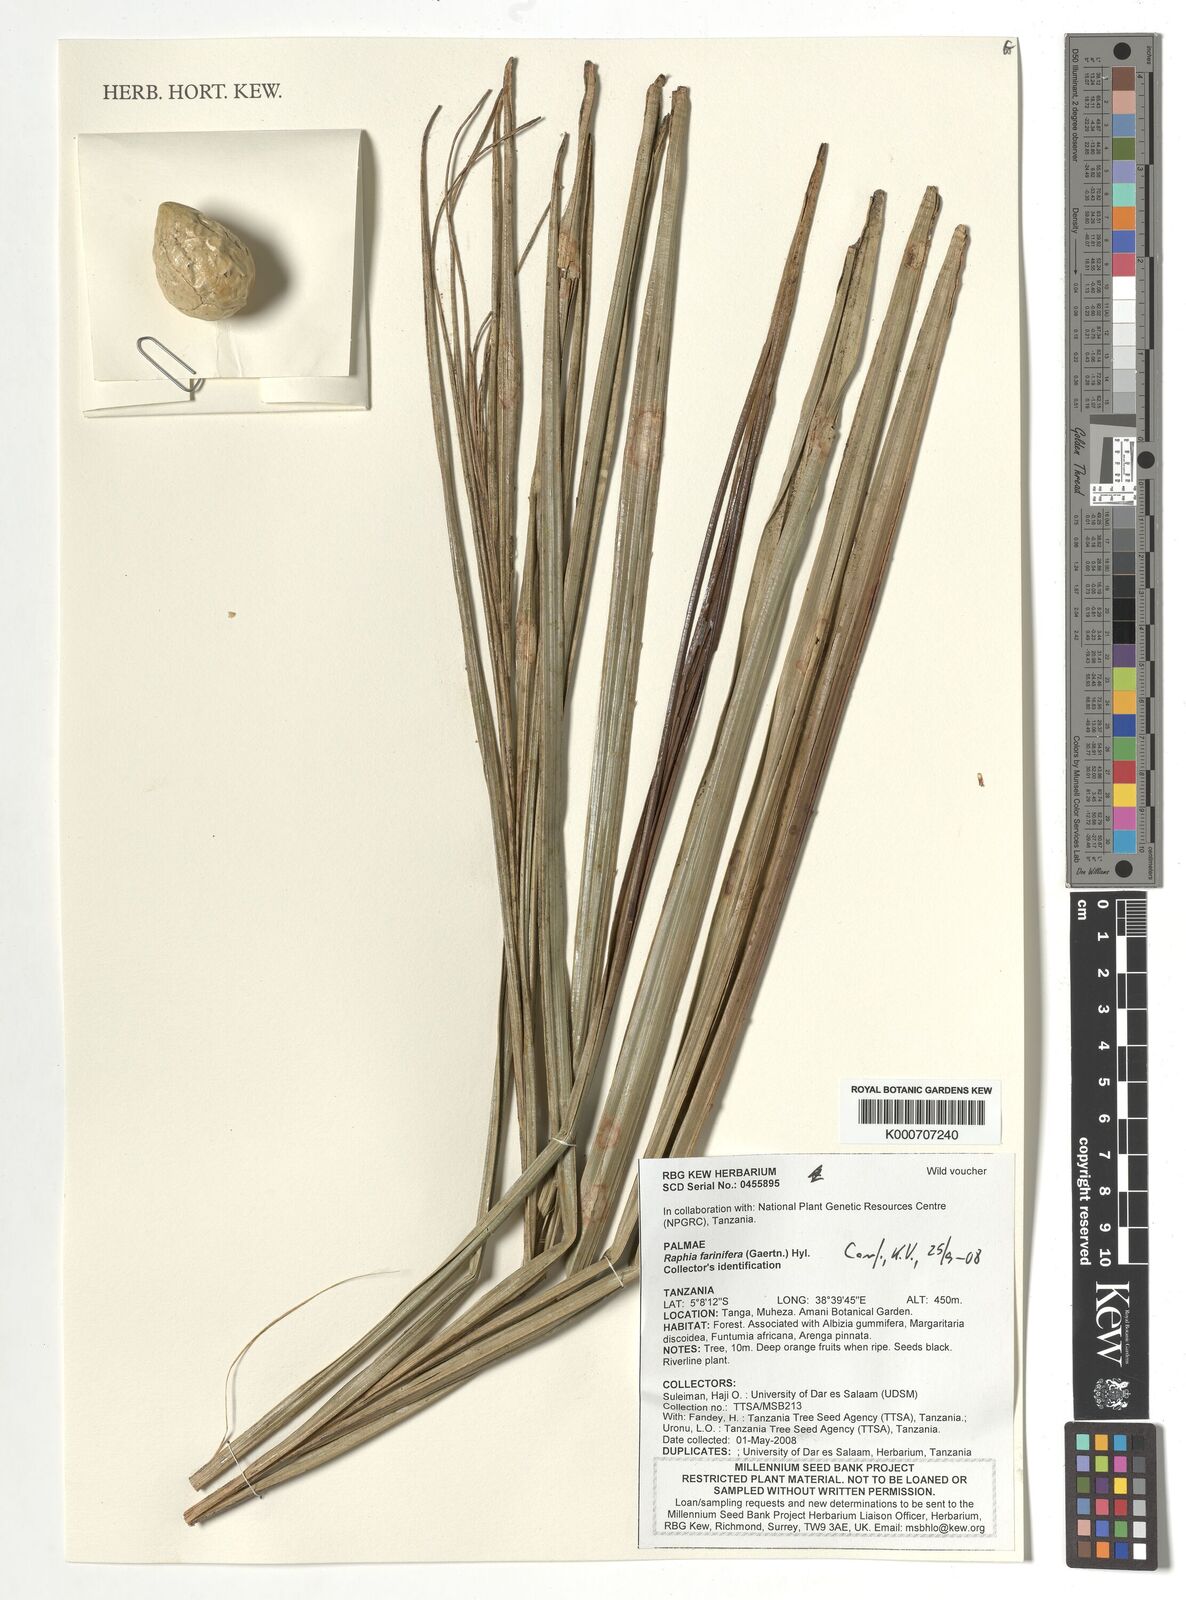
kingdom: Plantae
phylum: Tracheophyta
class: Liliopsida
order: Arecales
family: Arecaceae
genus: Raphia
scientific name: Raphia farinifera
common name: Raphia palm
